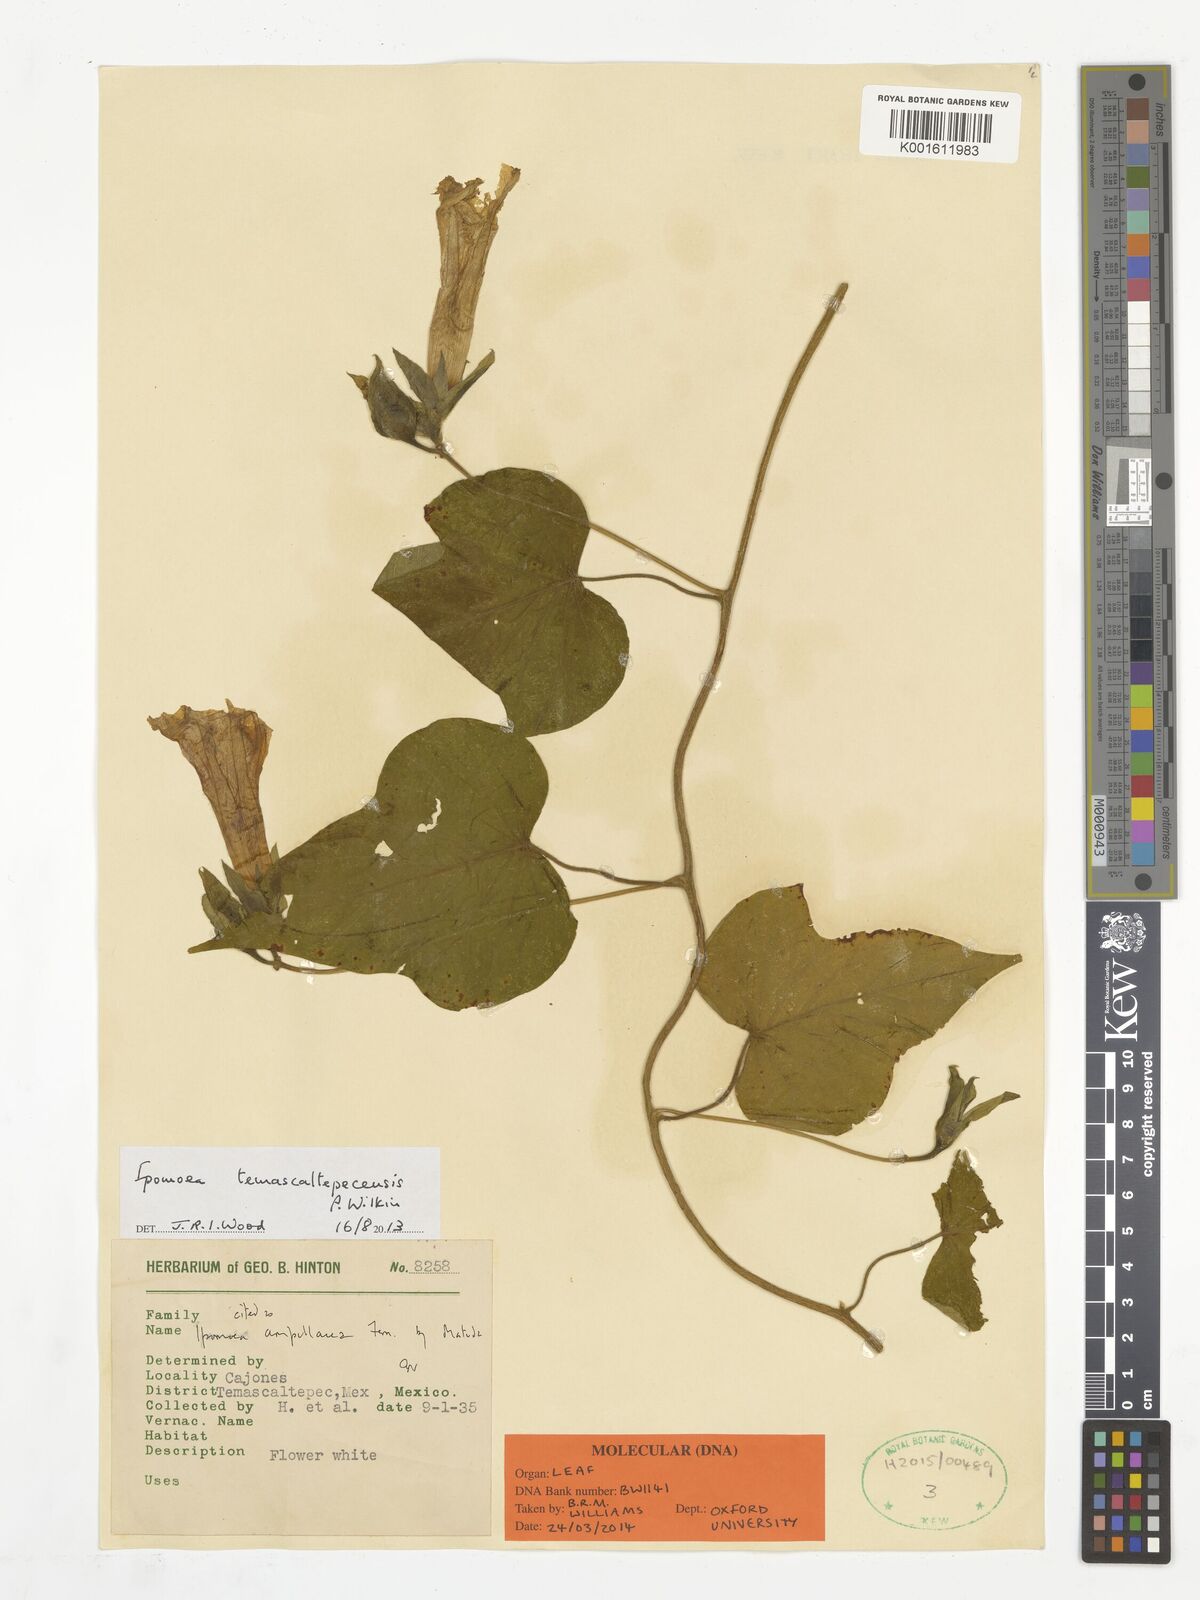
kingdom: Plantae
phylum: Tracheophyta
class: Magnoliopsida
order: Solanales
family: Convolvulaceae
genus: Ipomoea
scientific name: Ipomoea temascaltepecensis
